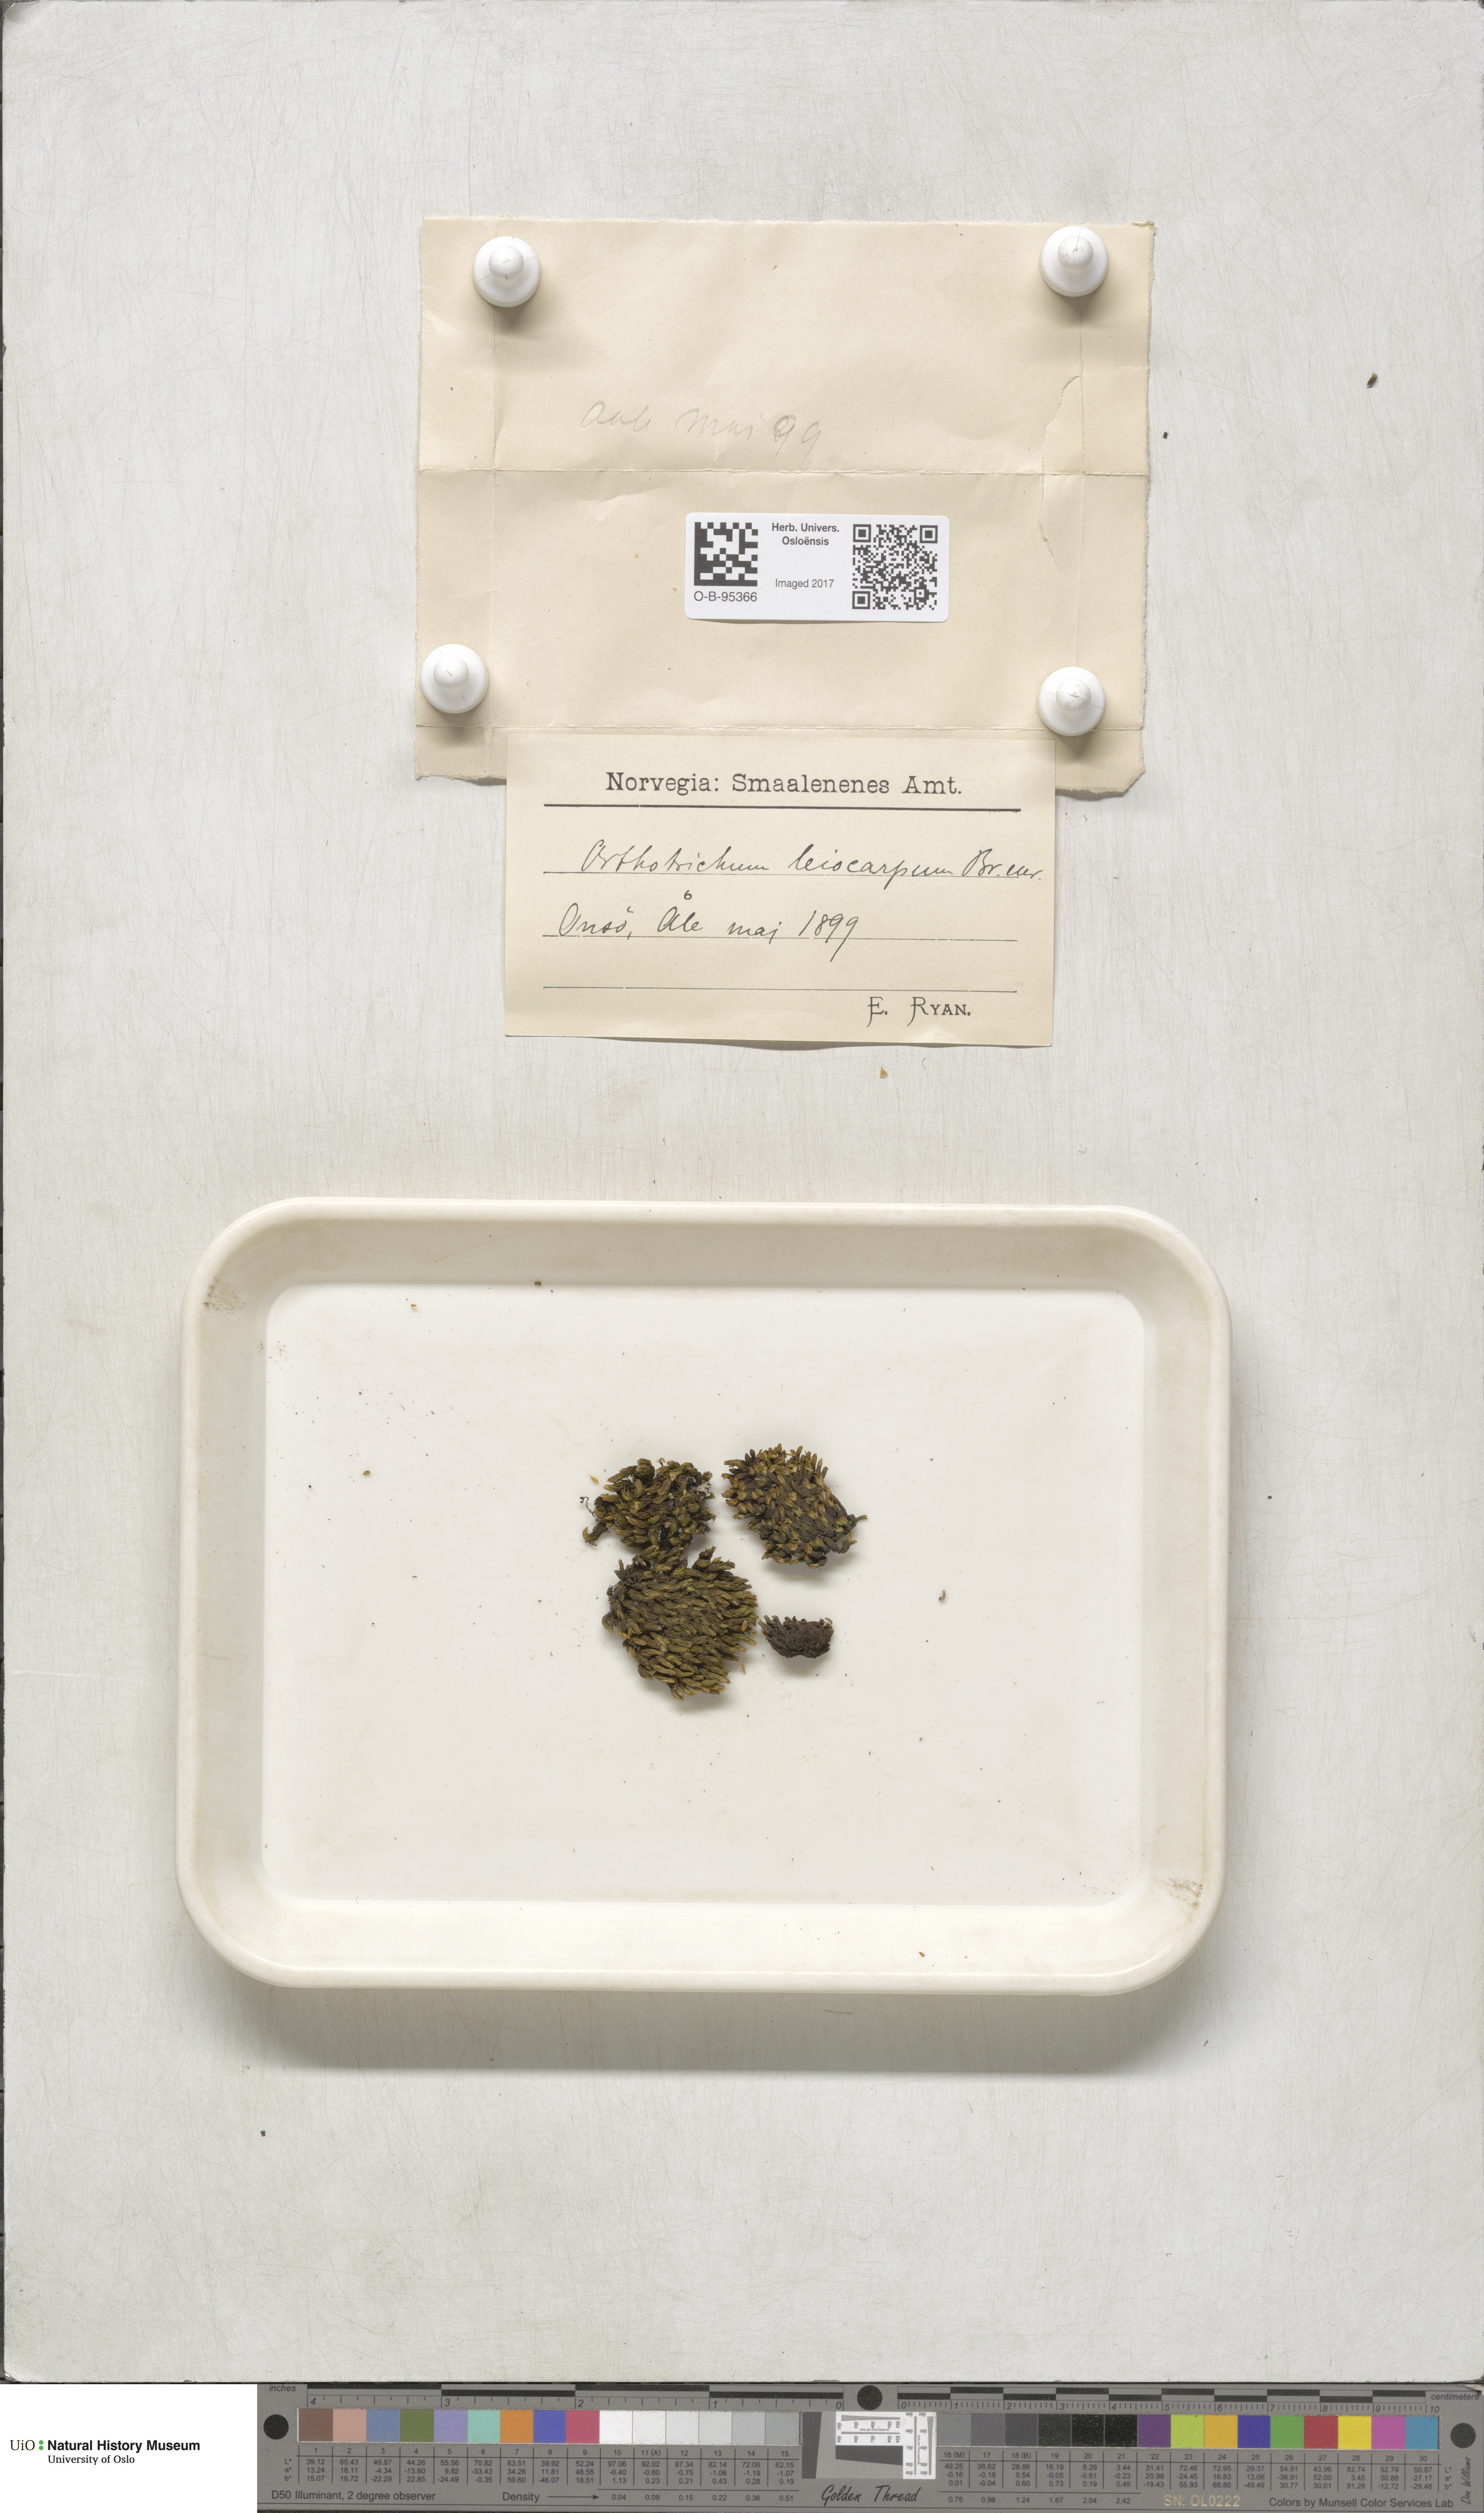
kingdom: Plantae
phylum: Bryophyta
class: Bryopsida
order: Orthotrichales
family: Orthotrichaceae
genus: Lewinskya
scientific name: Lewinskya striata
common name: Shaw's bristle-moss
